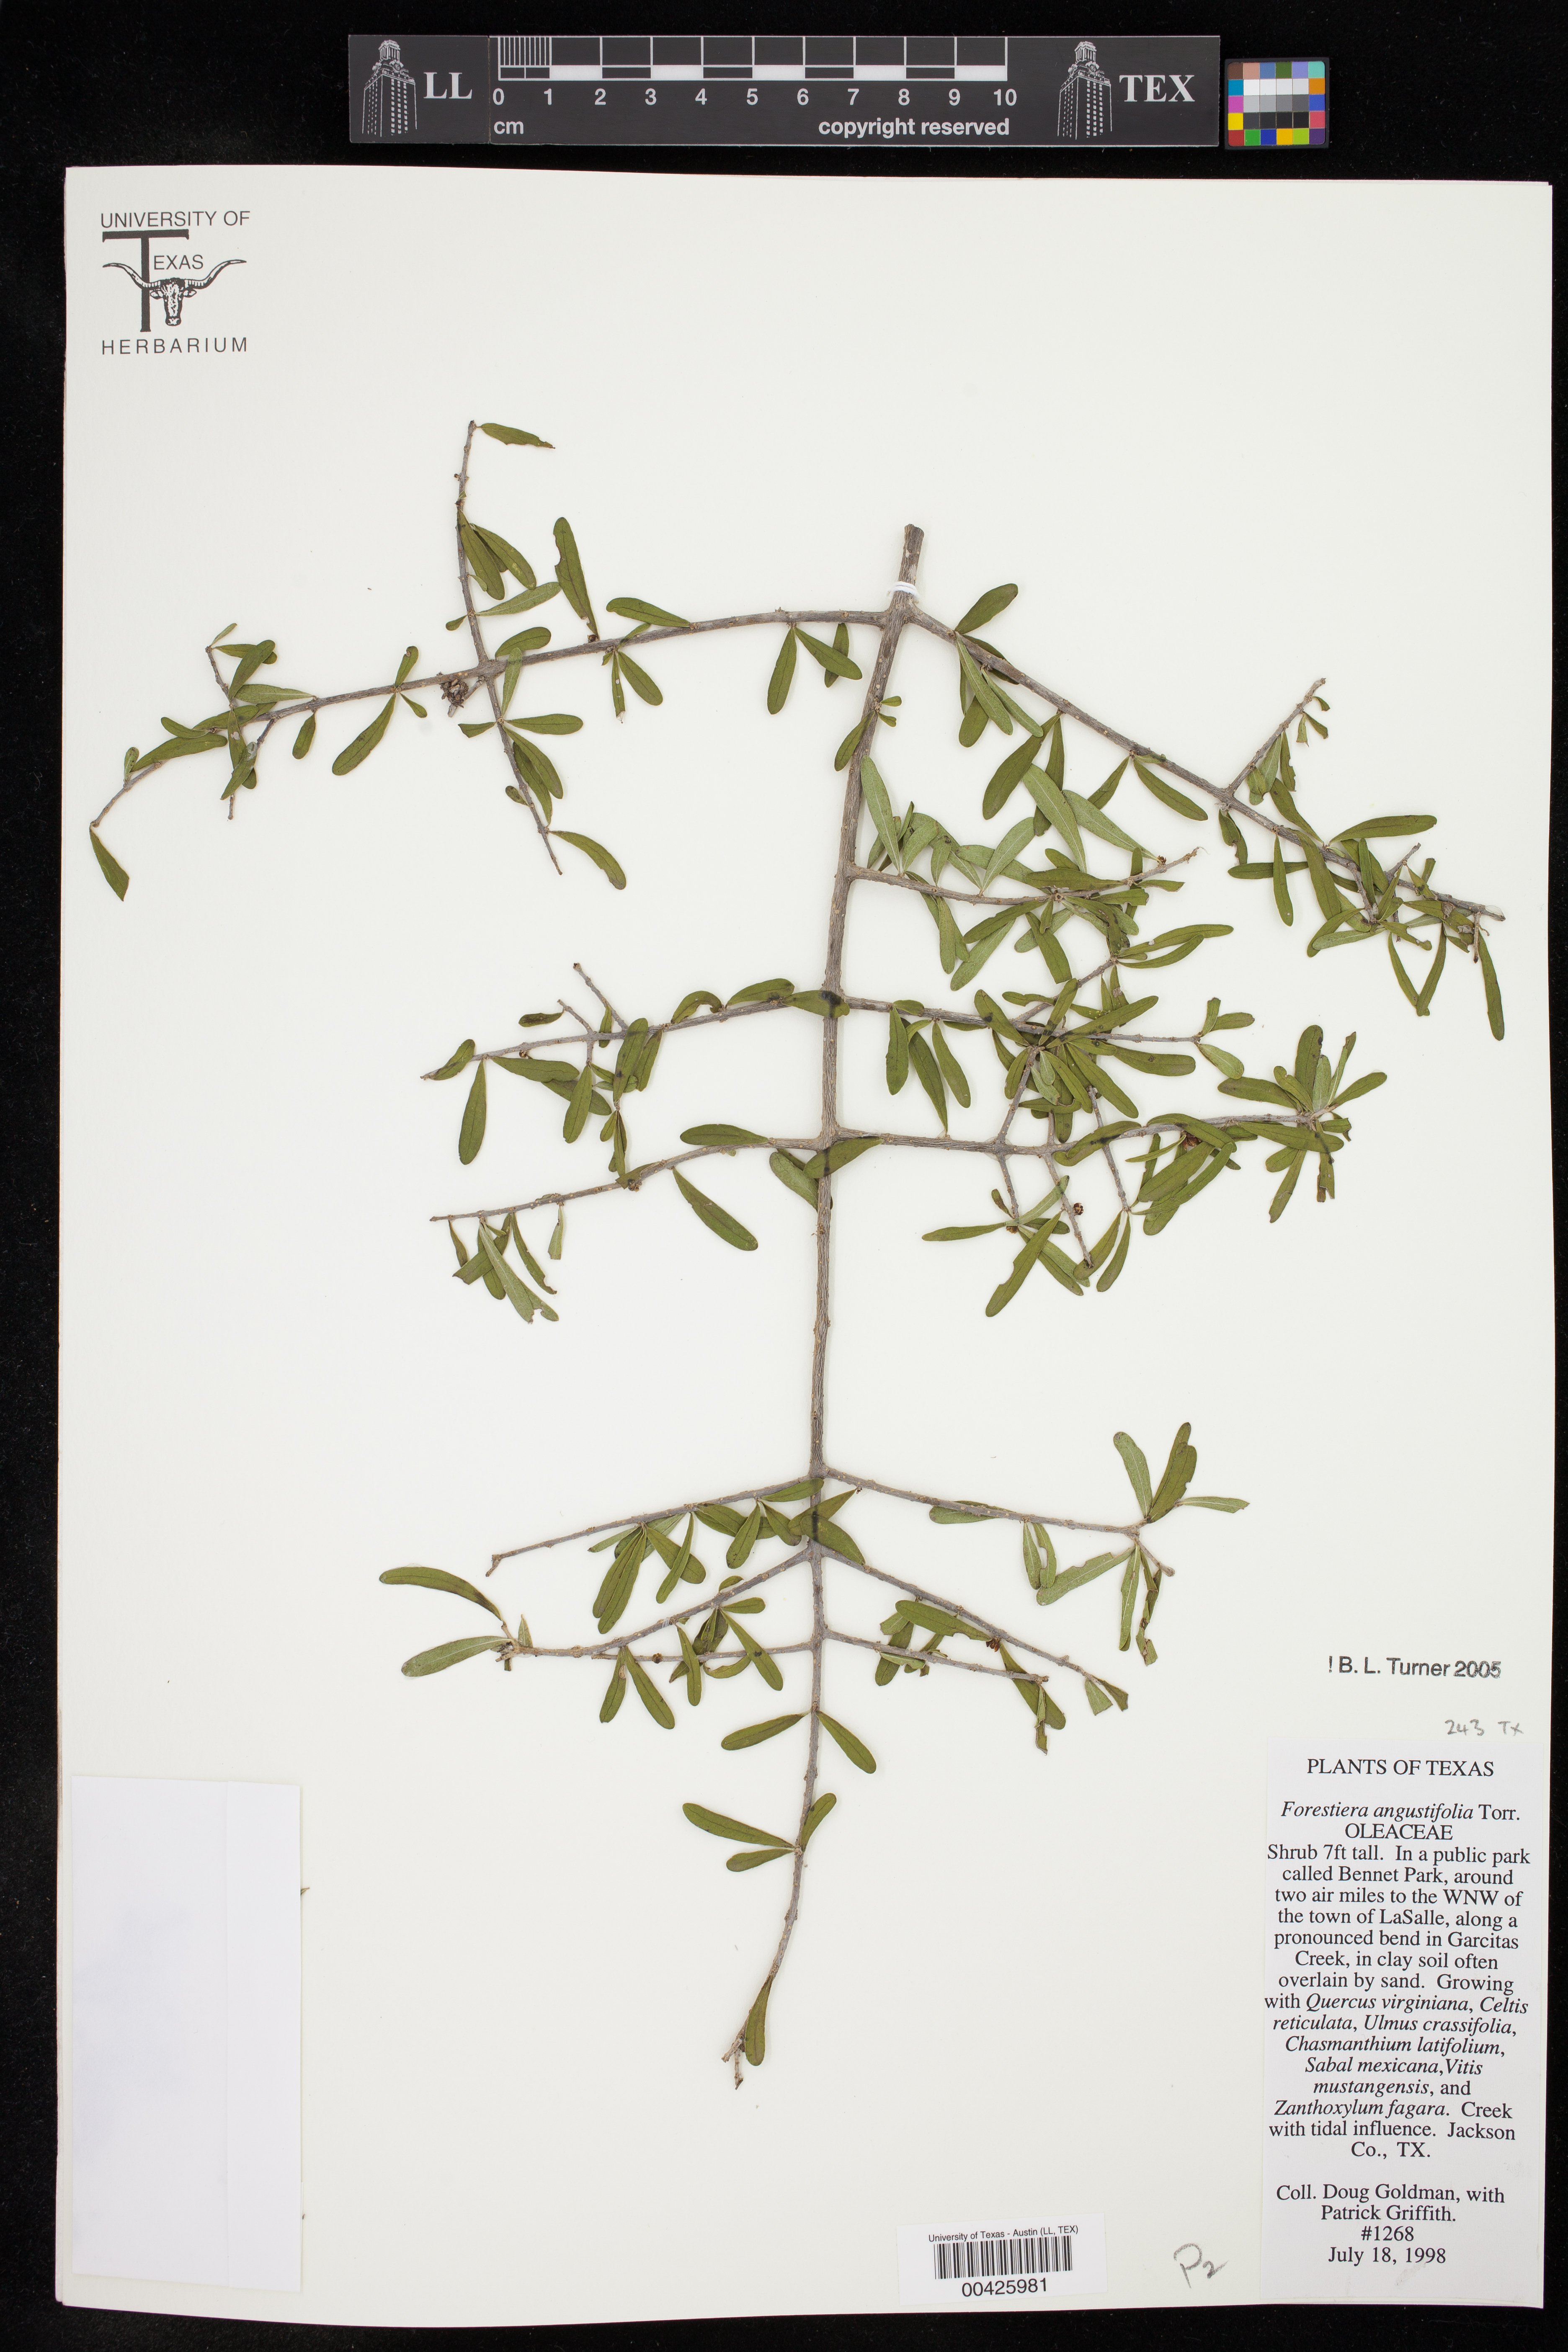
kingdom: Plantae
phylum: Tracheophyta
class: Magnoliopsida
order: Lamiales
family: Oleaceae
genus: Forestiera
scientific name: Forestiera angustifolia
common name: Elbowbush
